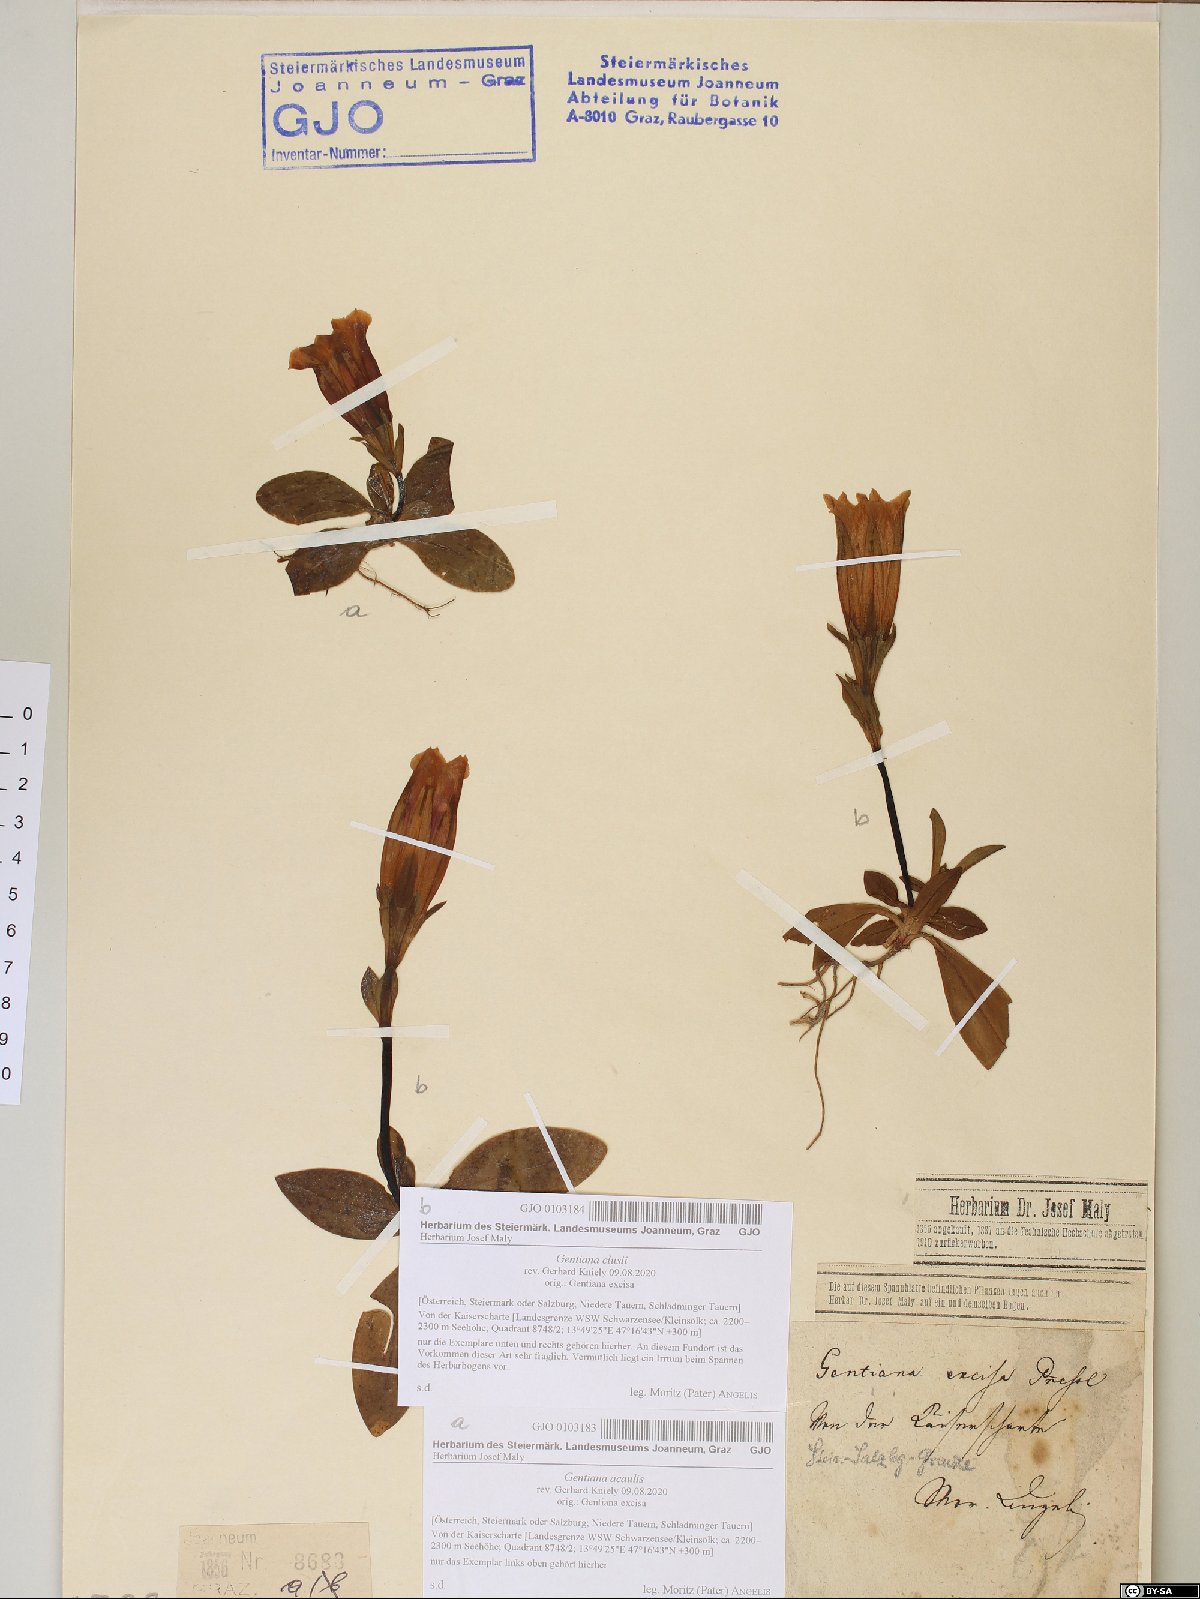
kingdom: Plantae
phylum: Tracheophyta
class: Magnoliopsida
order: Gentianales
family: Gentianaceae
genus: Gentiana
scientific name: Gentiana acaulis
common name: Trumpet gentian
